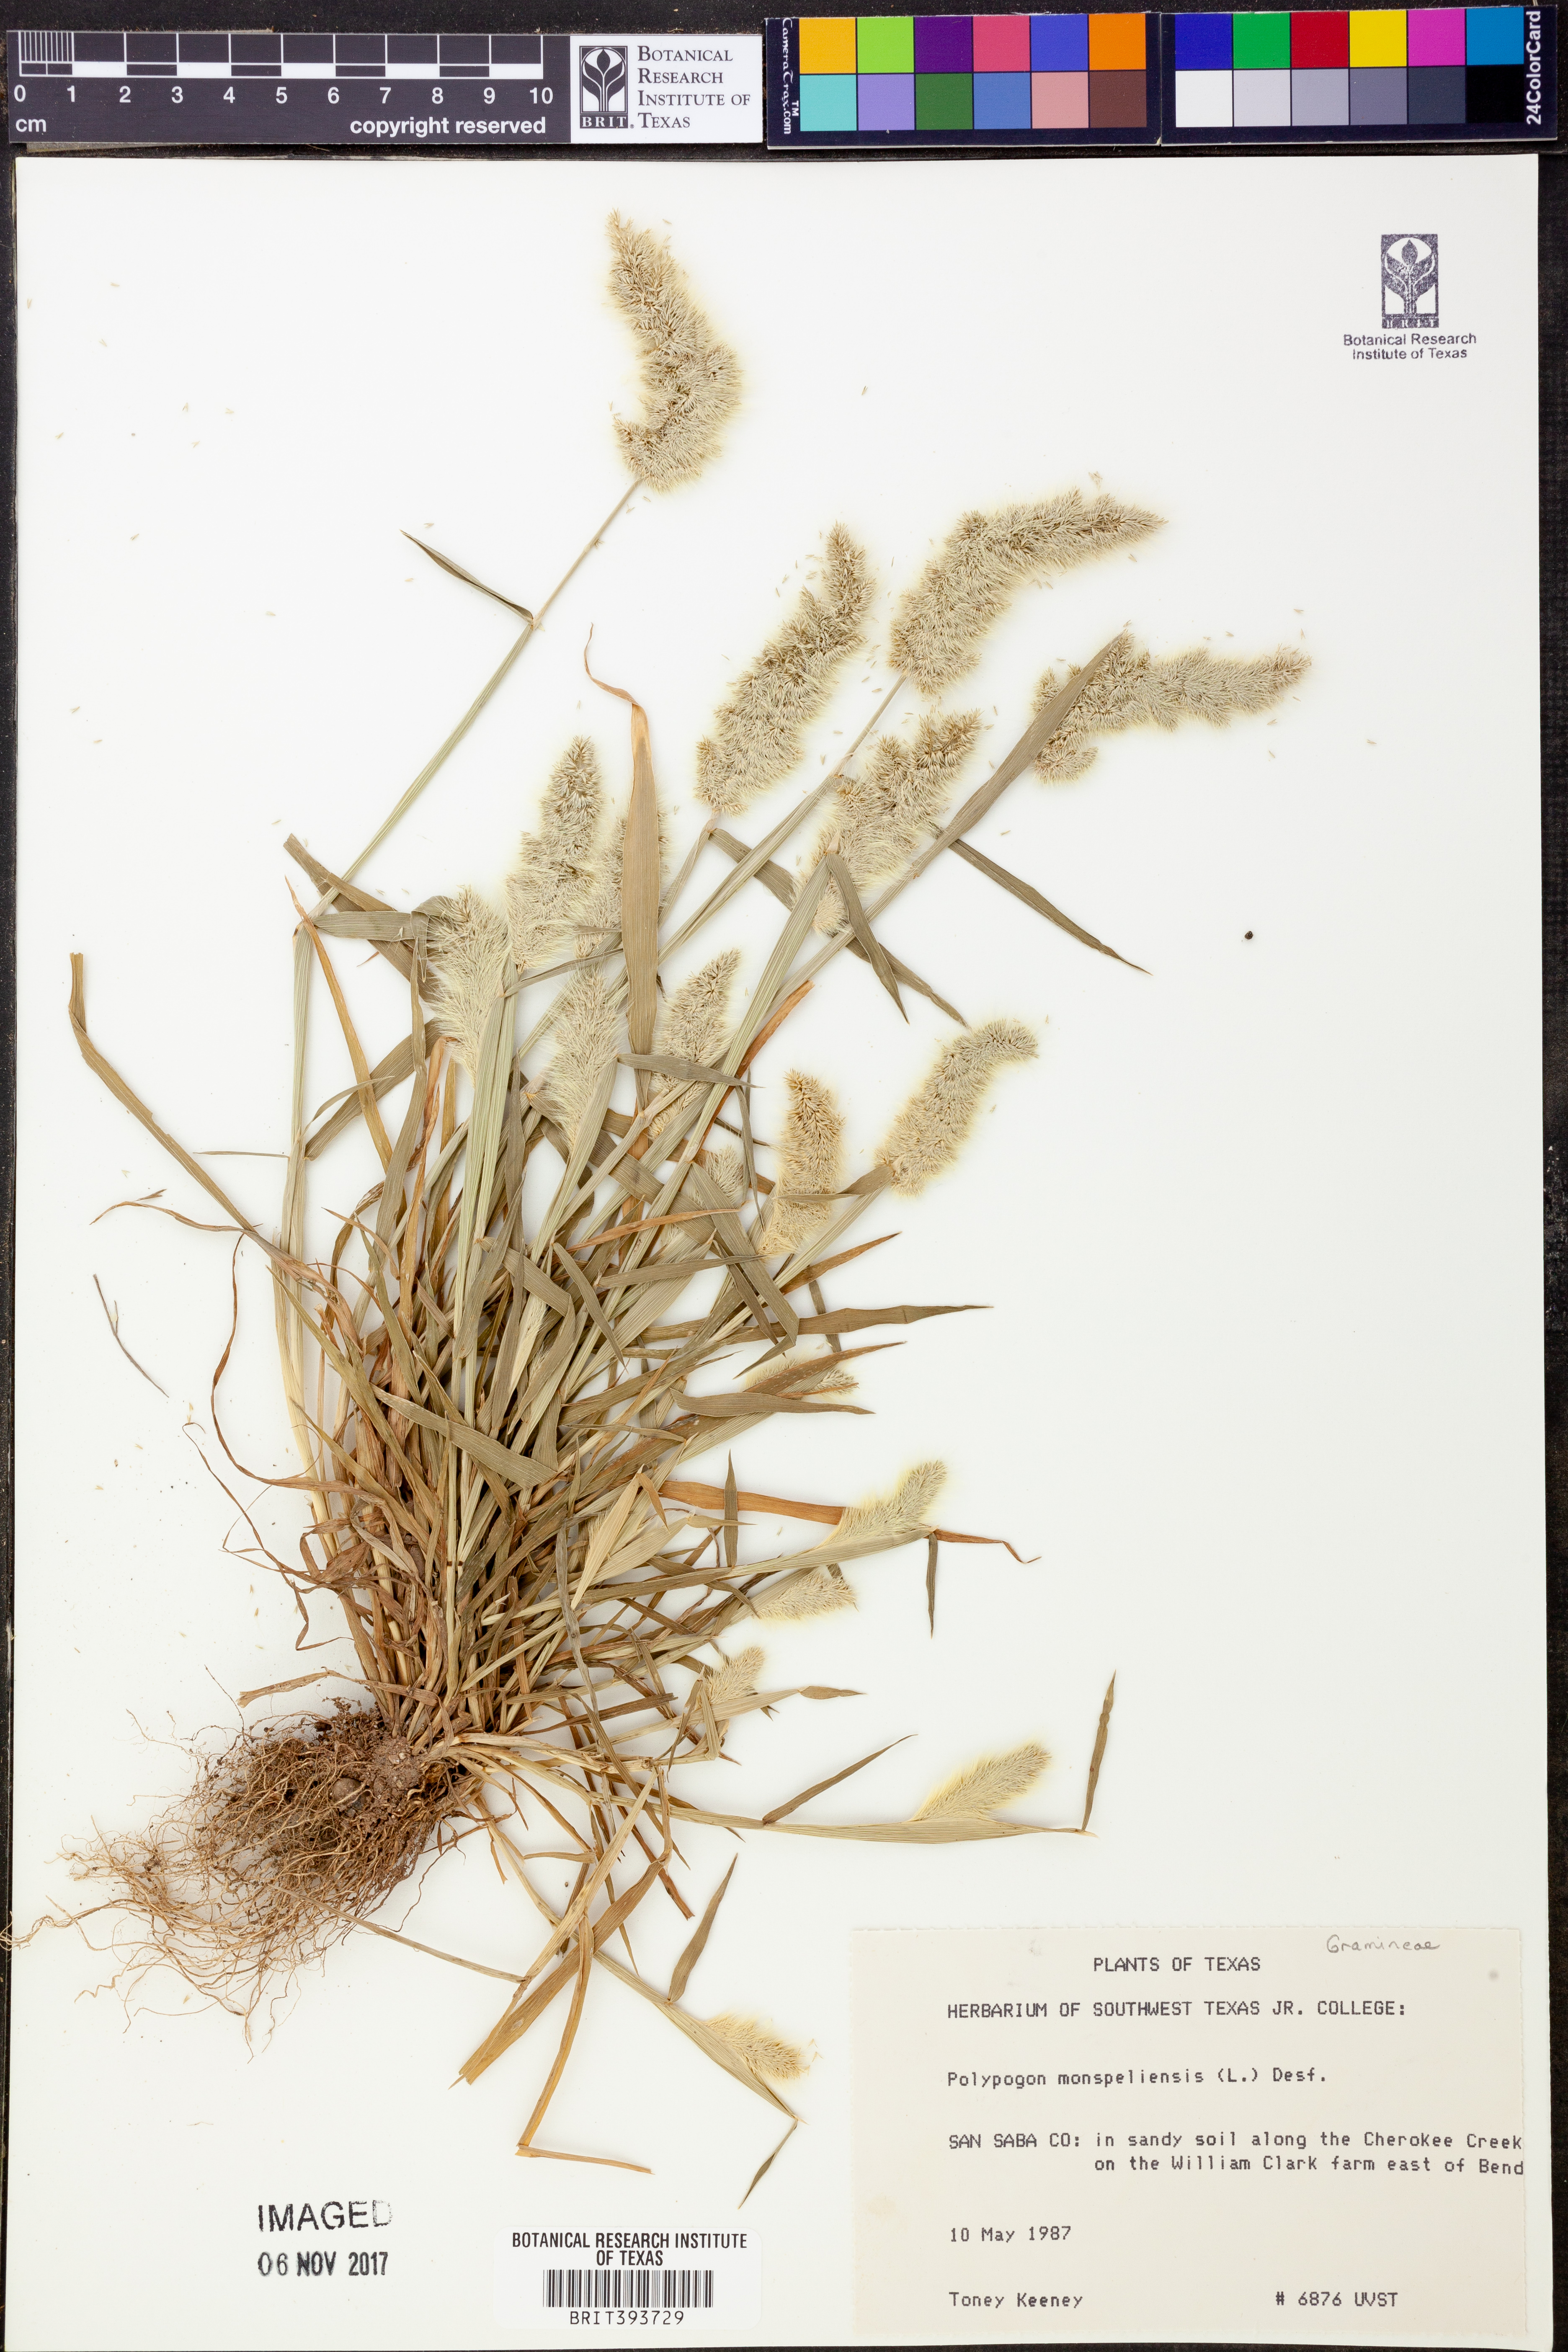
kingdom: Plantae
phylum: Tracheophyta
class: Liliopsida
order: Poales
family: Poaceae
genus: Polypogon
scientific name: Polypogon monspeliensis
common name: Annual rabbitsfoot grass
